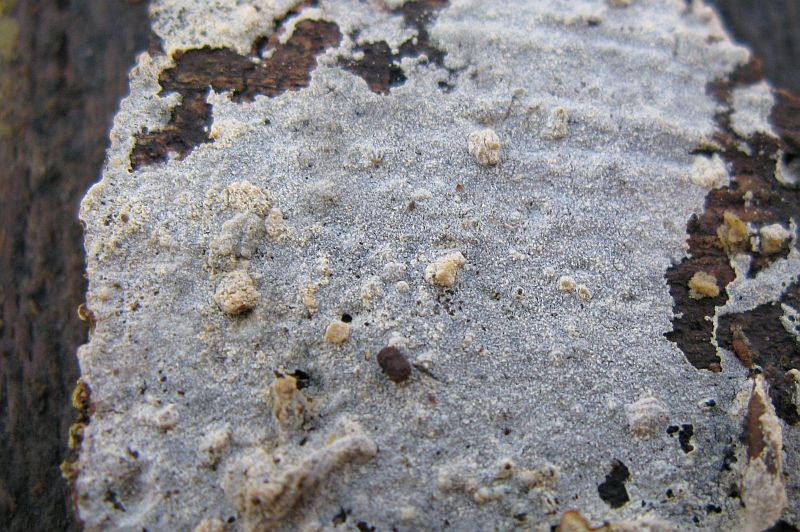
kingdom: Fungi
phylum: Basidiomycota
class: Agaricomycetes
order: Polyporales
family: Hyphodermataceae
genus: Hyphoderma
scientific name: Hyphoderma setigerum
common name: håret kalkskind
